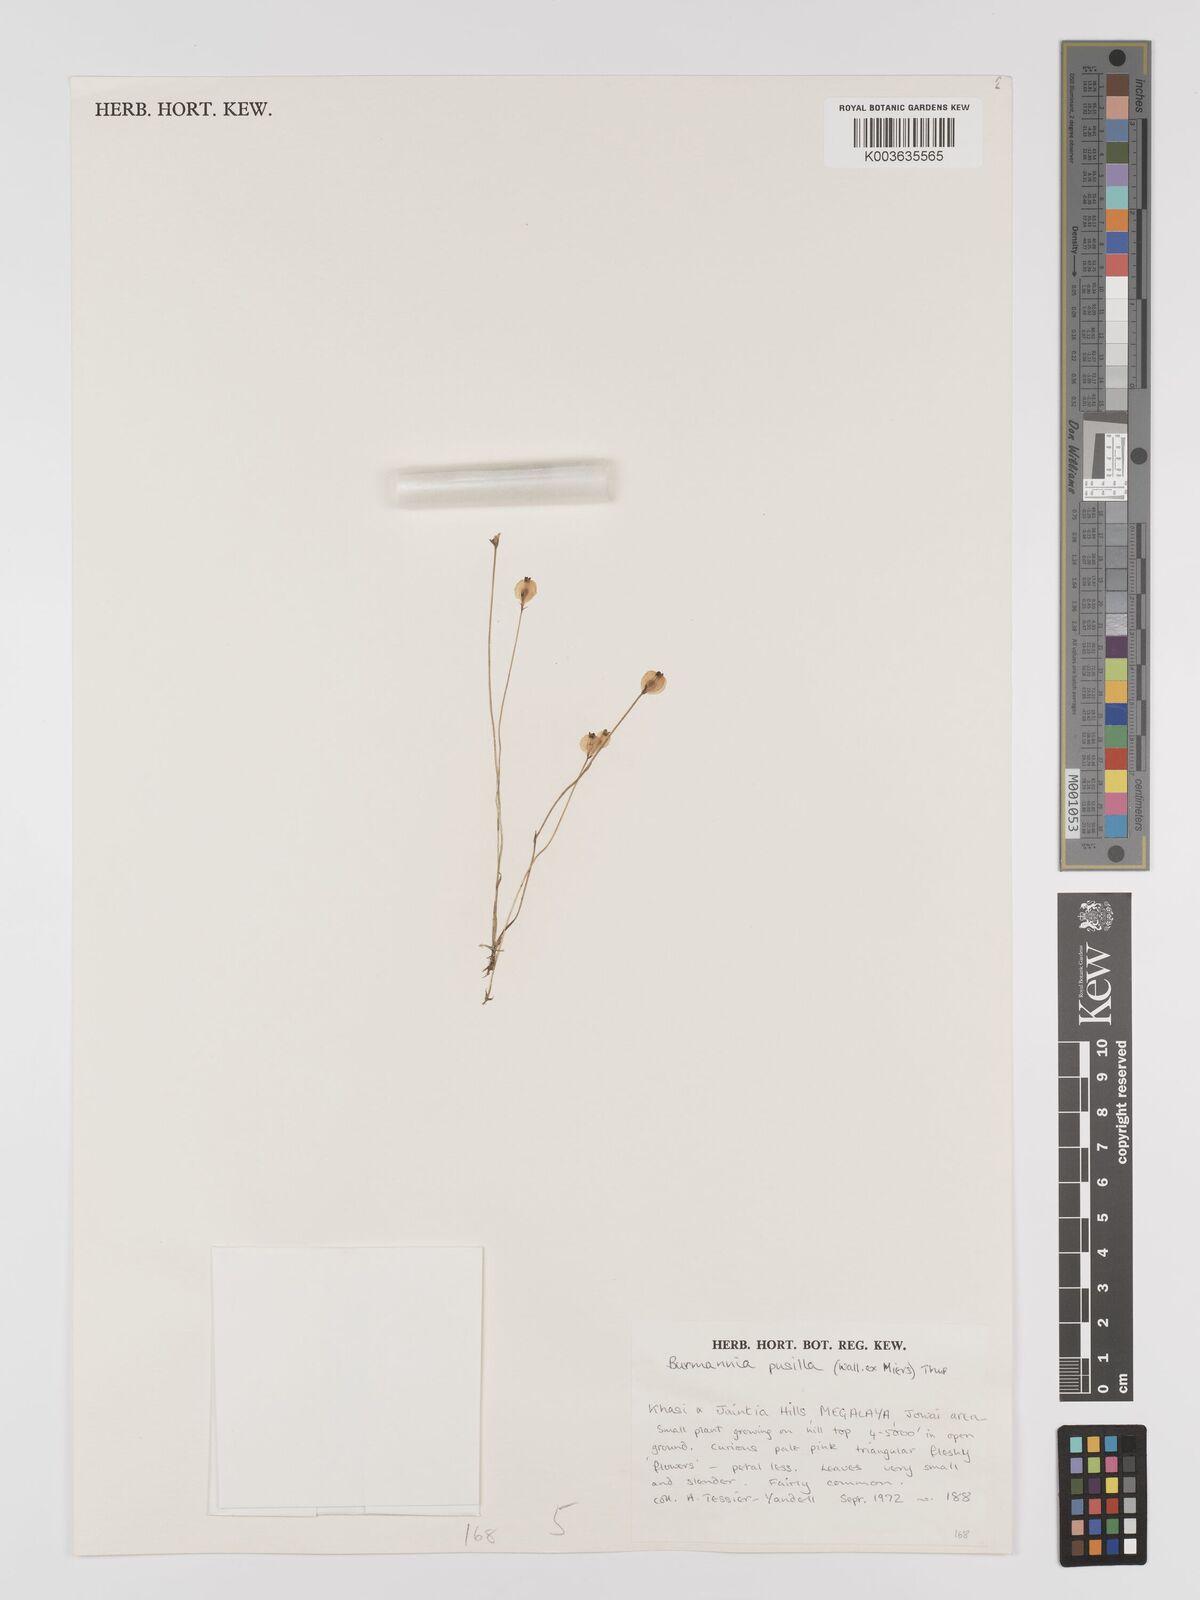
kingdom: Plantae
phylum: Tracheophyta
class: Liliopsida
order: Dioscoreales
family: Burmanniaceae
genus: Burmannia
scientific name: Burmannia pusilla
